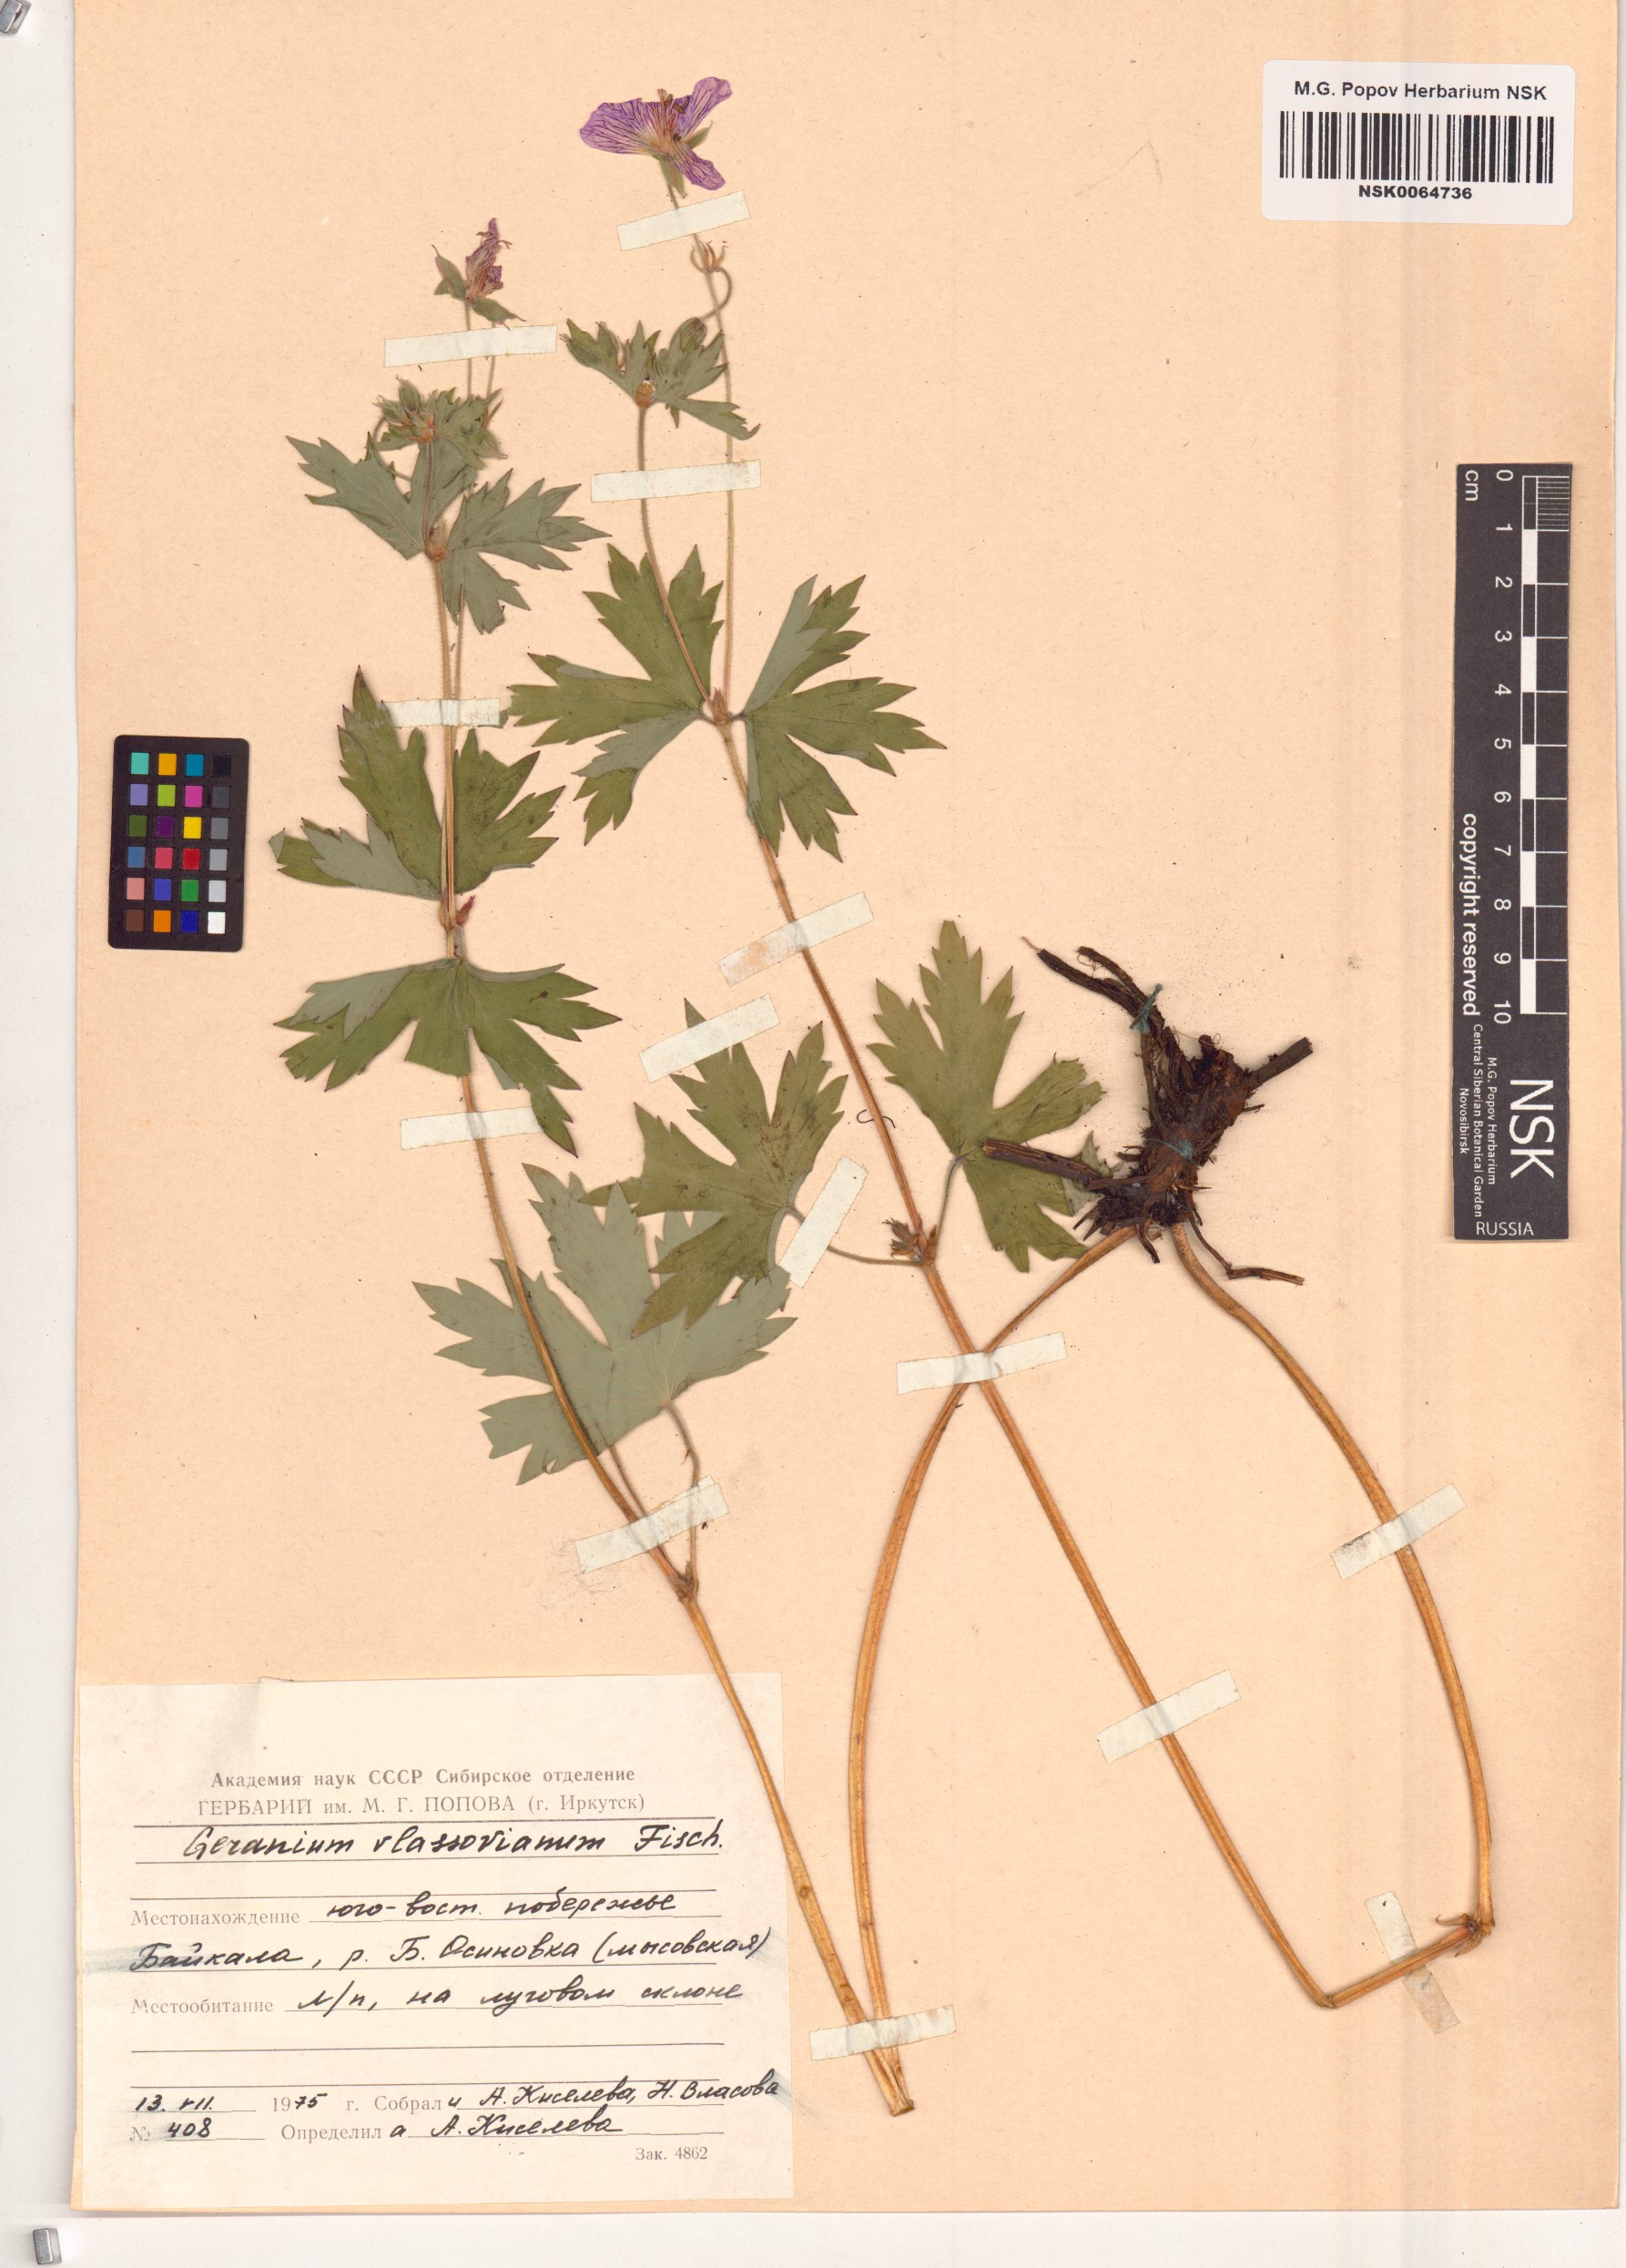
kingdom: Plantae
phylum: Tracheophyta
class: Magnoliopsida
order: Geraniales
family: Geraniaceae
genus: Geranium
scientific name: Geranium wlassovianum
